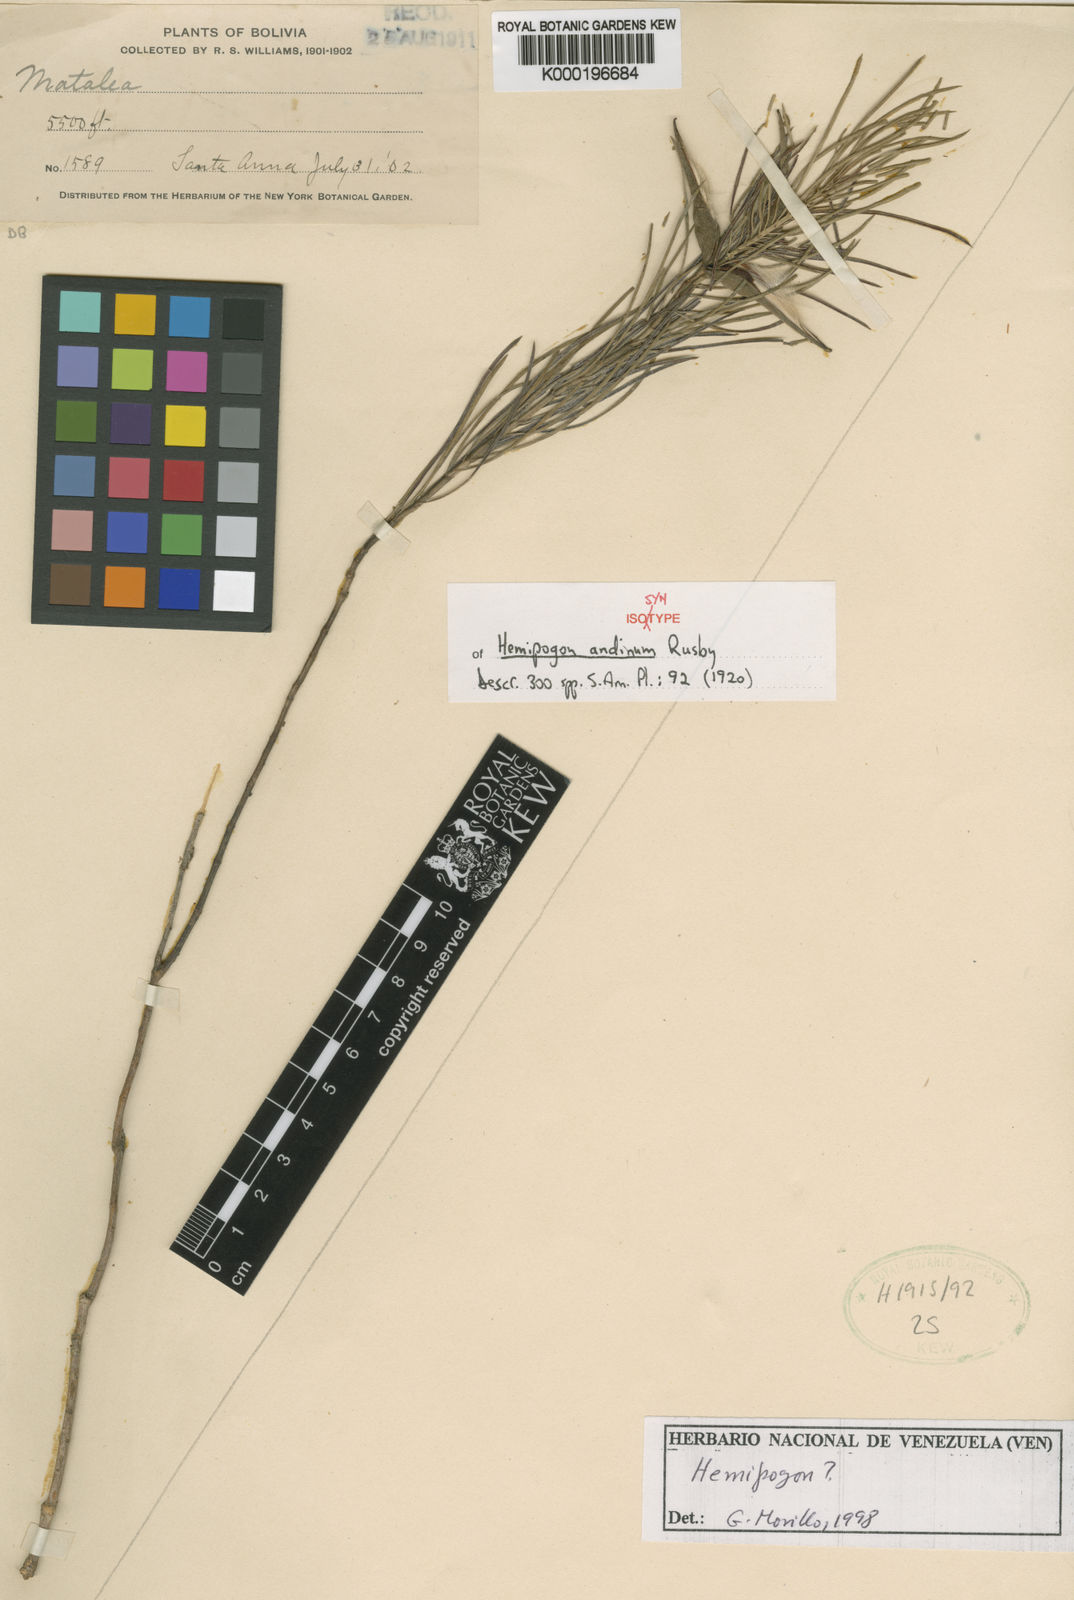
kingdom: Plantae
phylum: Tracheophyta
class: Magnoliopsida
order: Gentianales
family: Apocynaceae
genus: Hemipogon
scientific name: Hemipogon peruvianus
